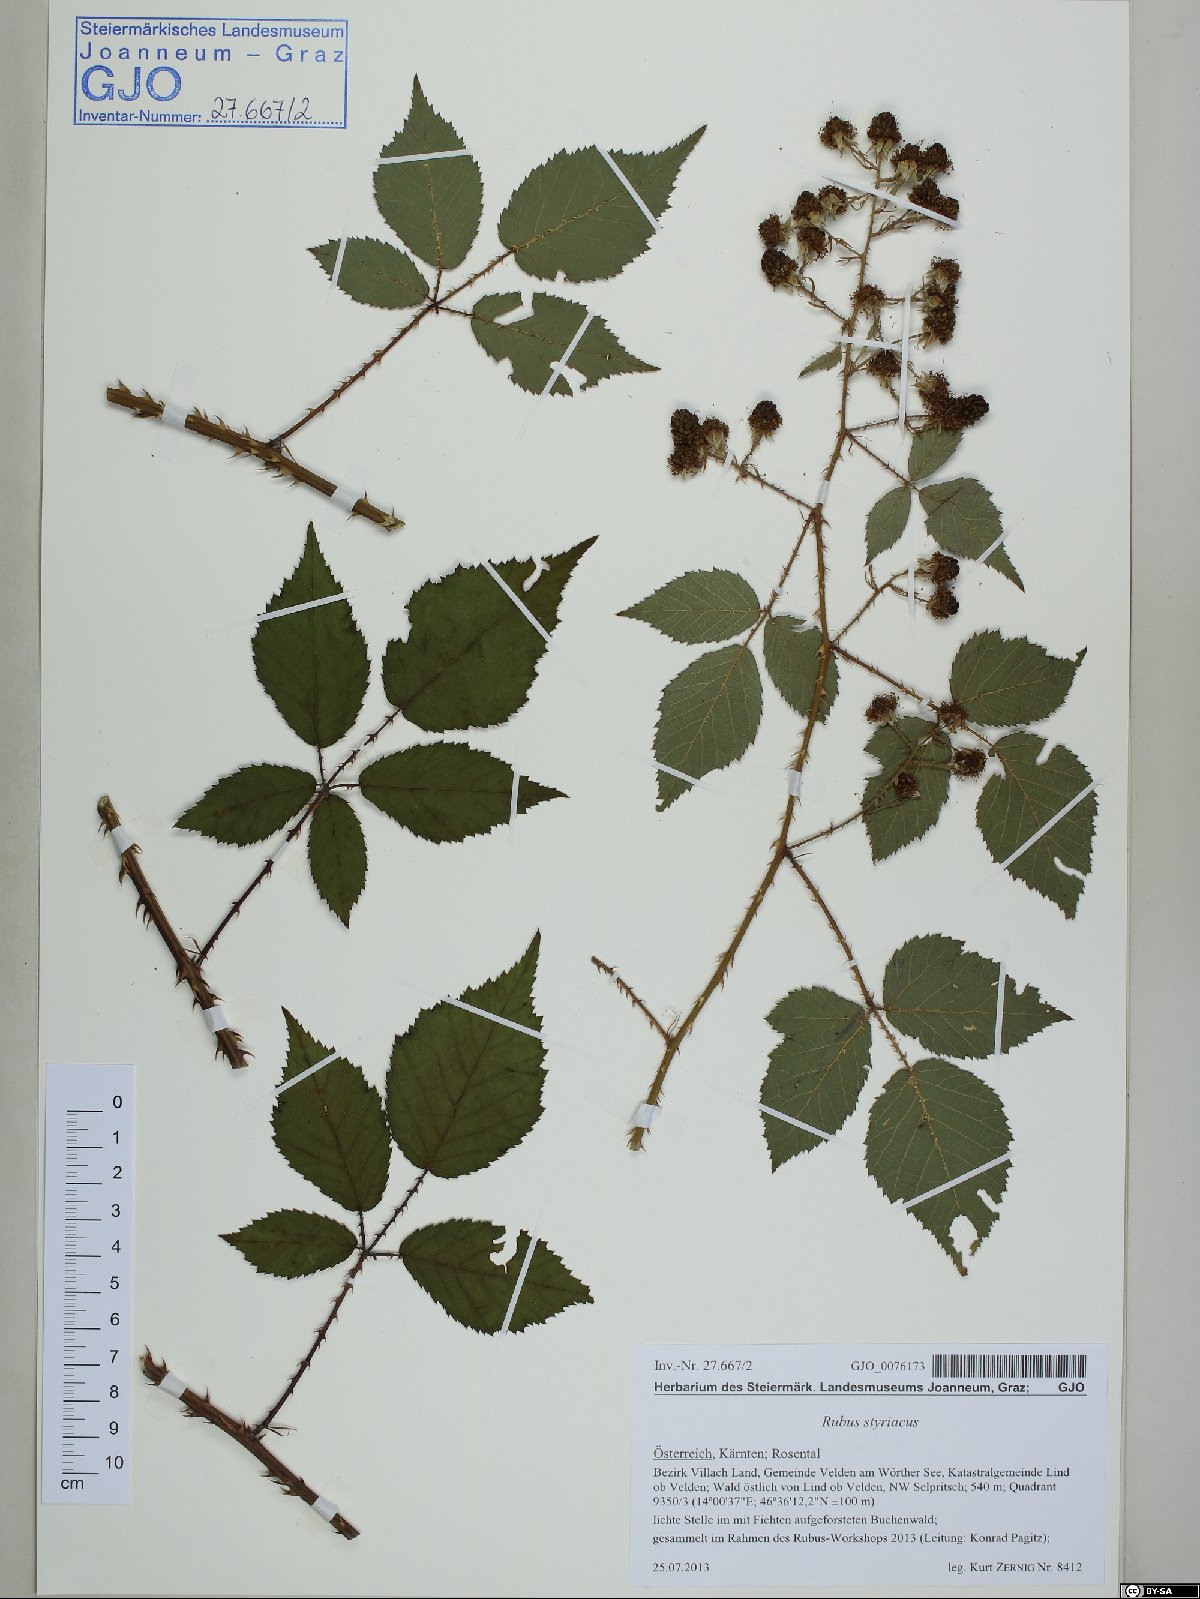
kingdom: Plantae
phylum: Tracheophyta
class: Magnoliopsida
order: Rosales
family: Rosaceae
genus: Rubus
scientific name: Rubus styriacus
